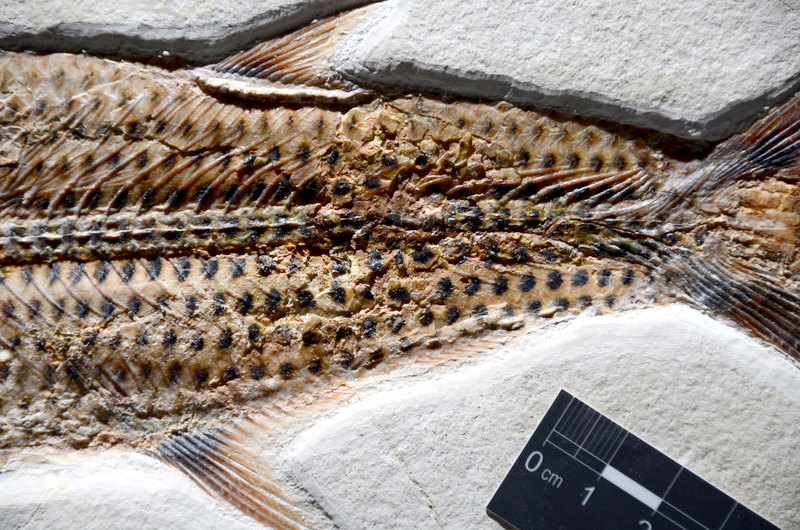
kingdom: Animalia
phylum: Chordata
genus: Thrissops
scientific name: Thrissops formosus
